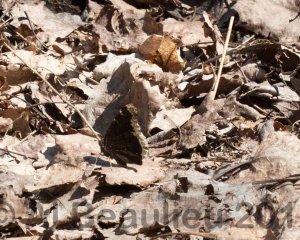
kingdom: Animalia
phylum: Arthropoda
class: Insecta
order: Lepidoptera
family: Nymphalidae
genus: Nymphalis
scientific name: Nymphalis antiopa
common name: Mourning Cloak
